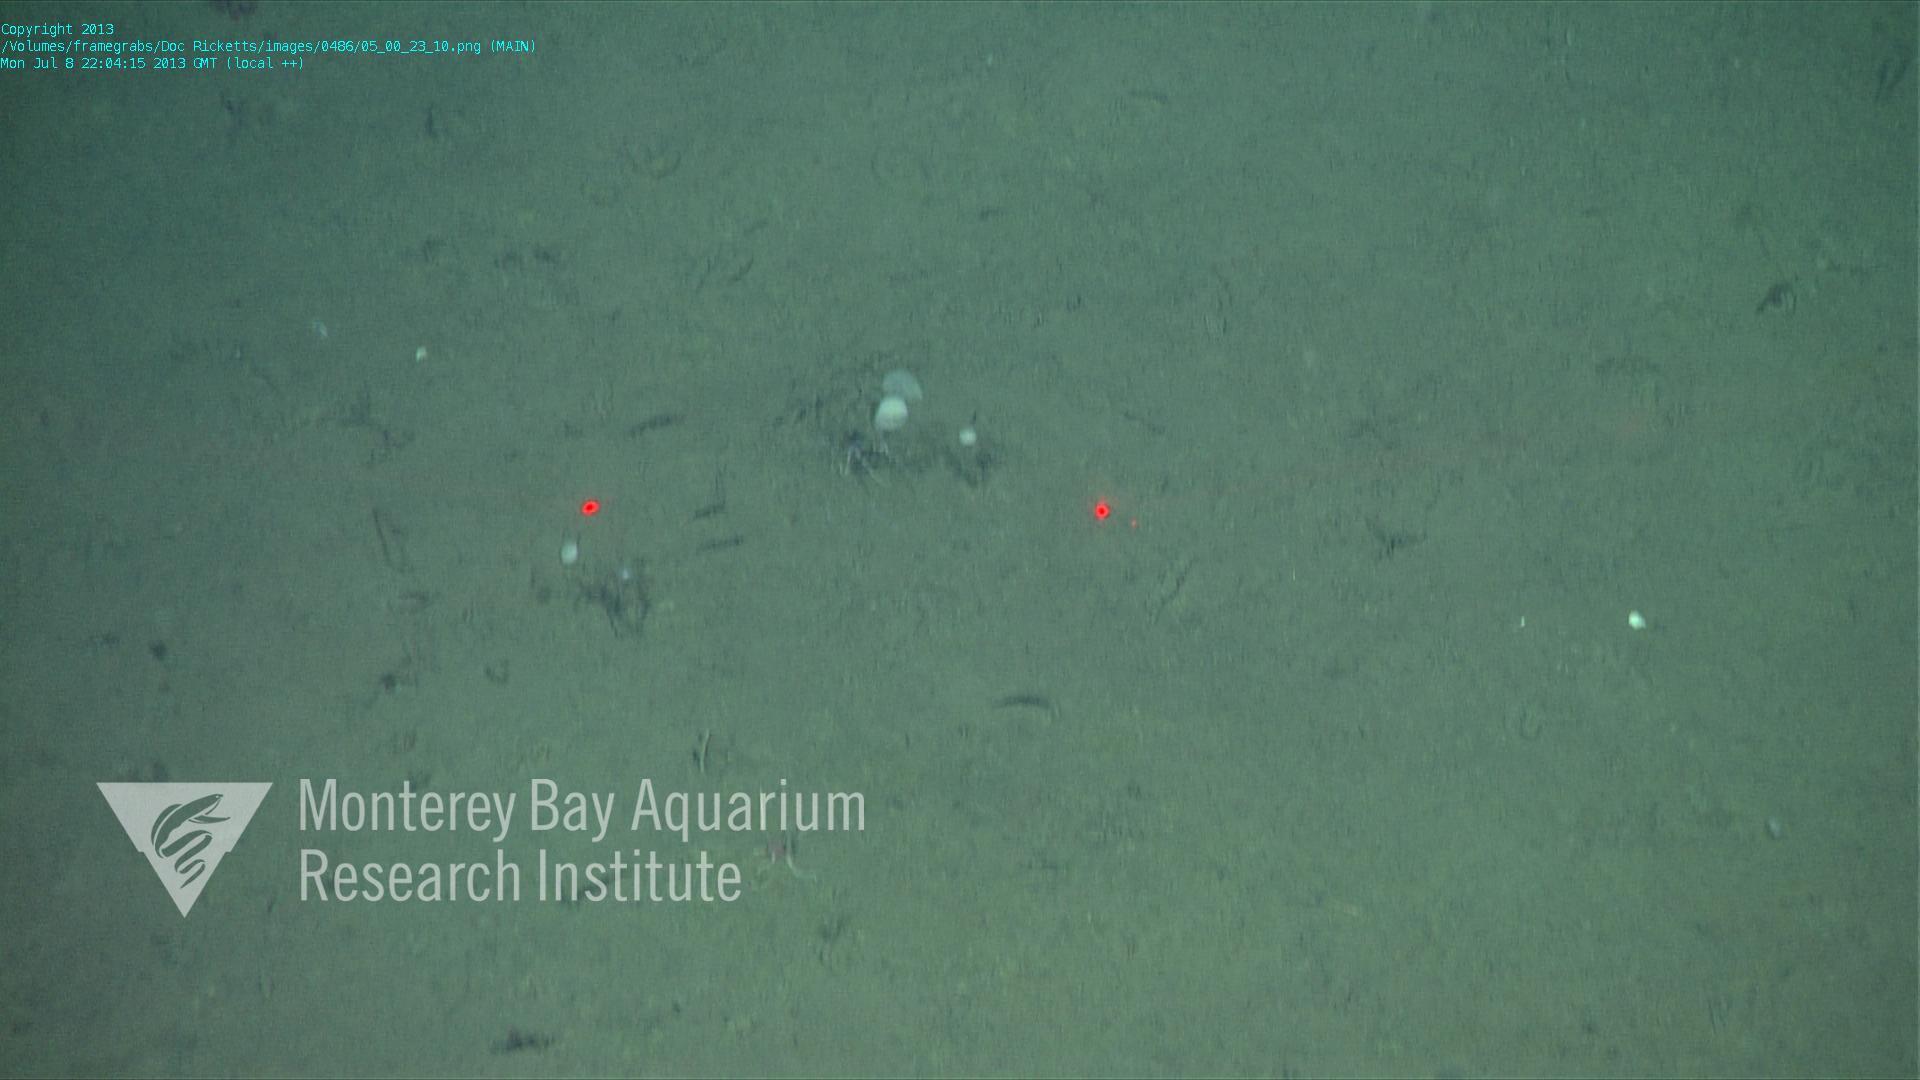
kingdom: Animalia
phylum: Porifera
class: Demospongiae
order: Poecilosclerida
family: Cladorhizidae
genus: Cladorhiza
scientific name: Cladorhiza
